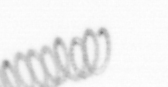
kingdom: Chromista
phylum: Ochrophyta
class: Bacillariophyceae
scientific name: Bacillariophyceae
